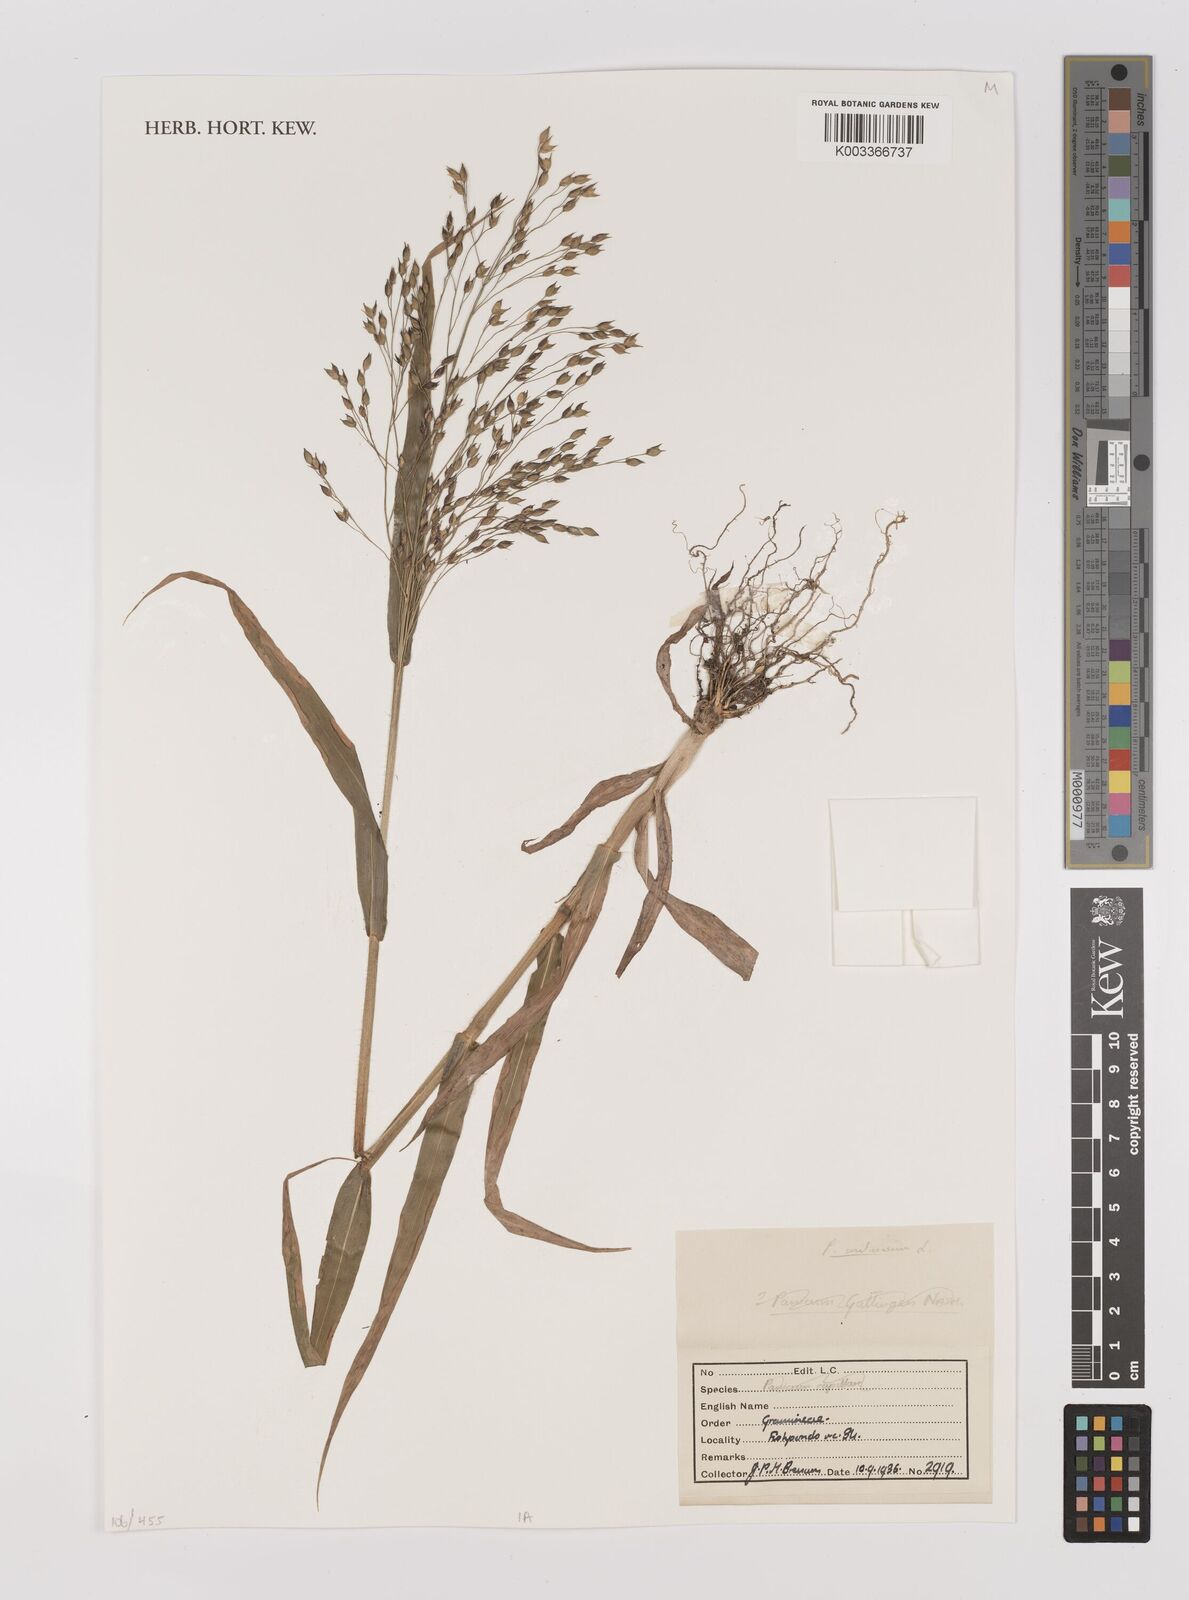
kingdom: Plantae
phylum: Tracheophyta
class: Liliopsida
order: Poales
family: Poaceae
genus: Panicum
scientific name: Panicum miliaceum
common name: Common millet
